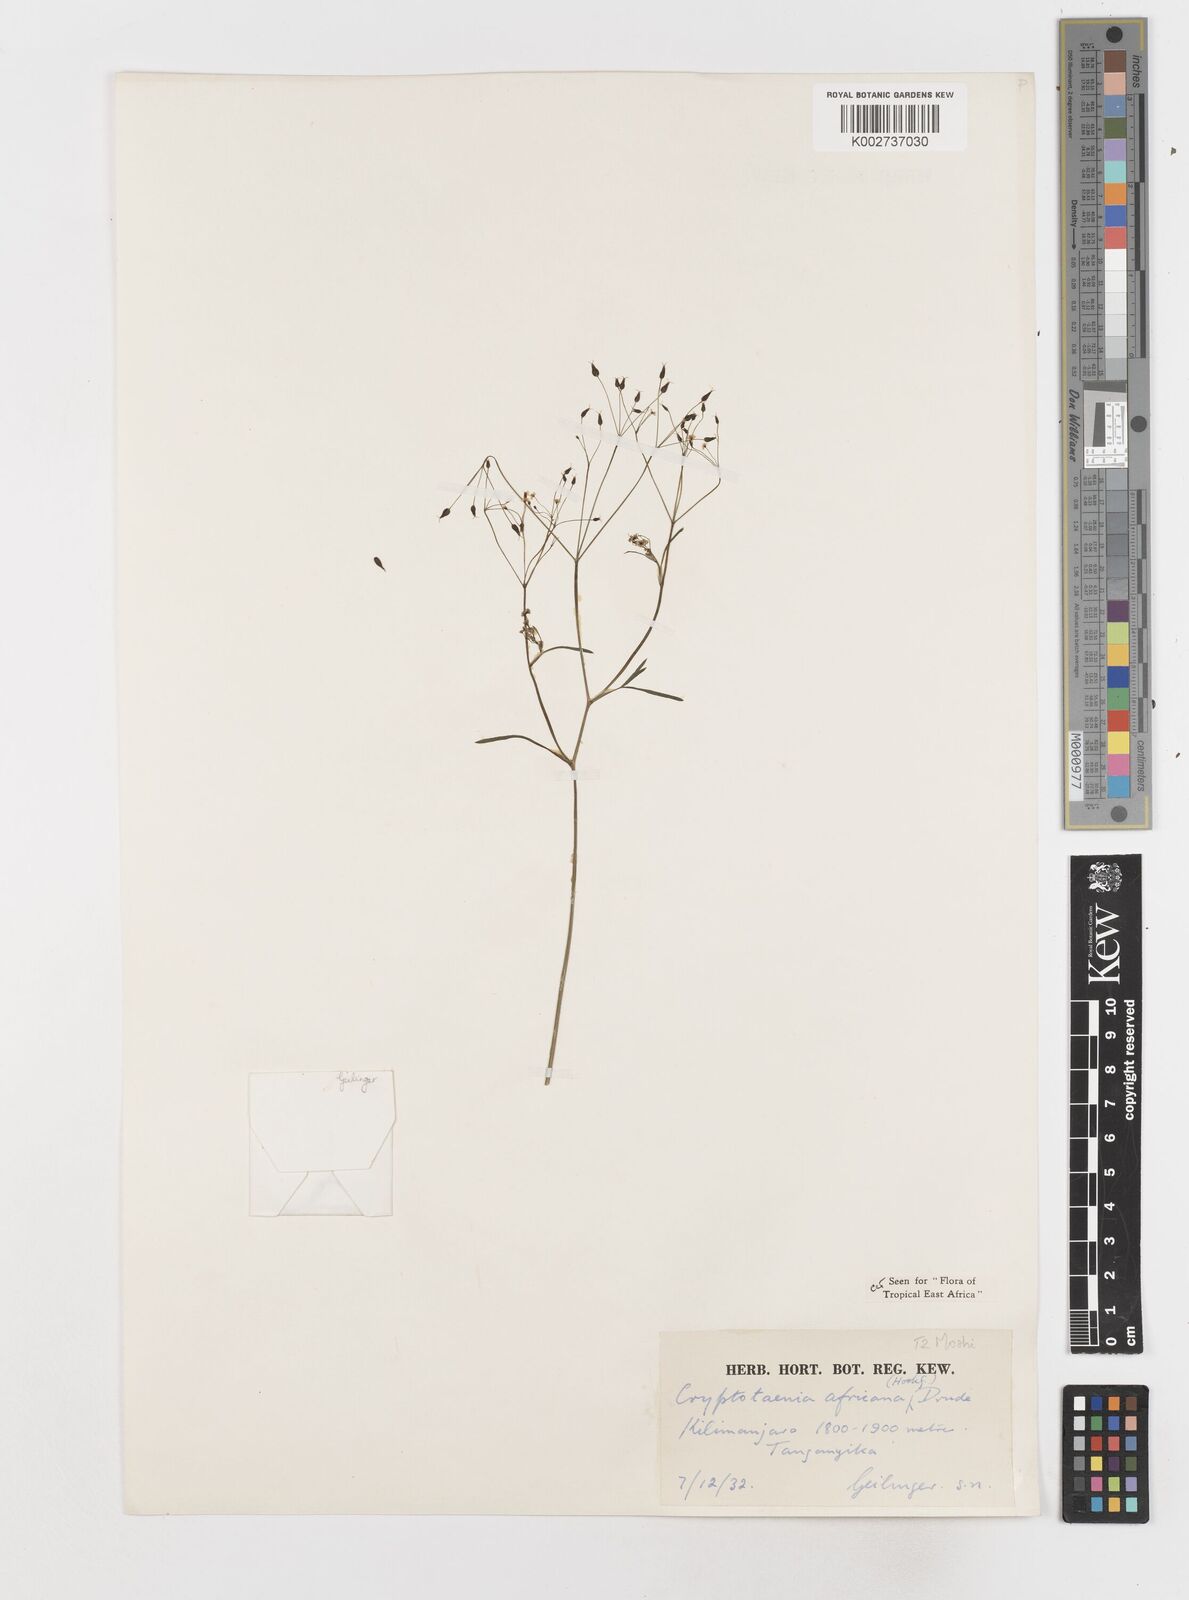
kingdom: Plantae
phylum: Tracheophyta
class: Magnoliopsida
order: Apiales
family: Apiaceae
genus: Cryptotaenia
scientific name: Cryptotaenia africana
